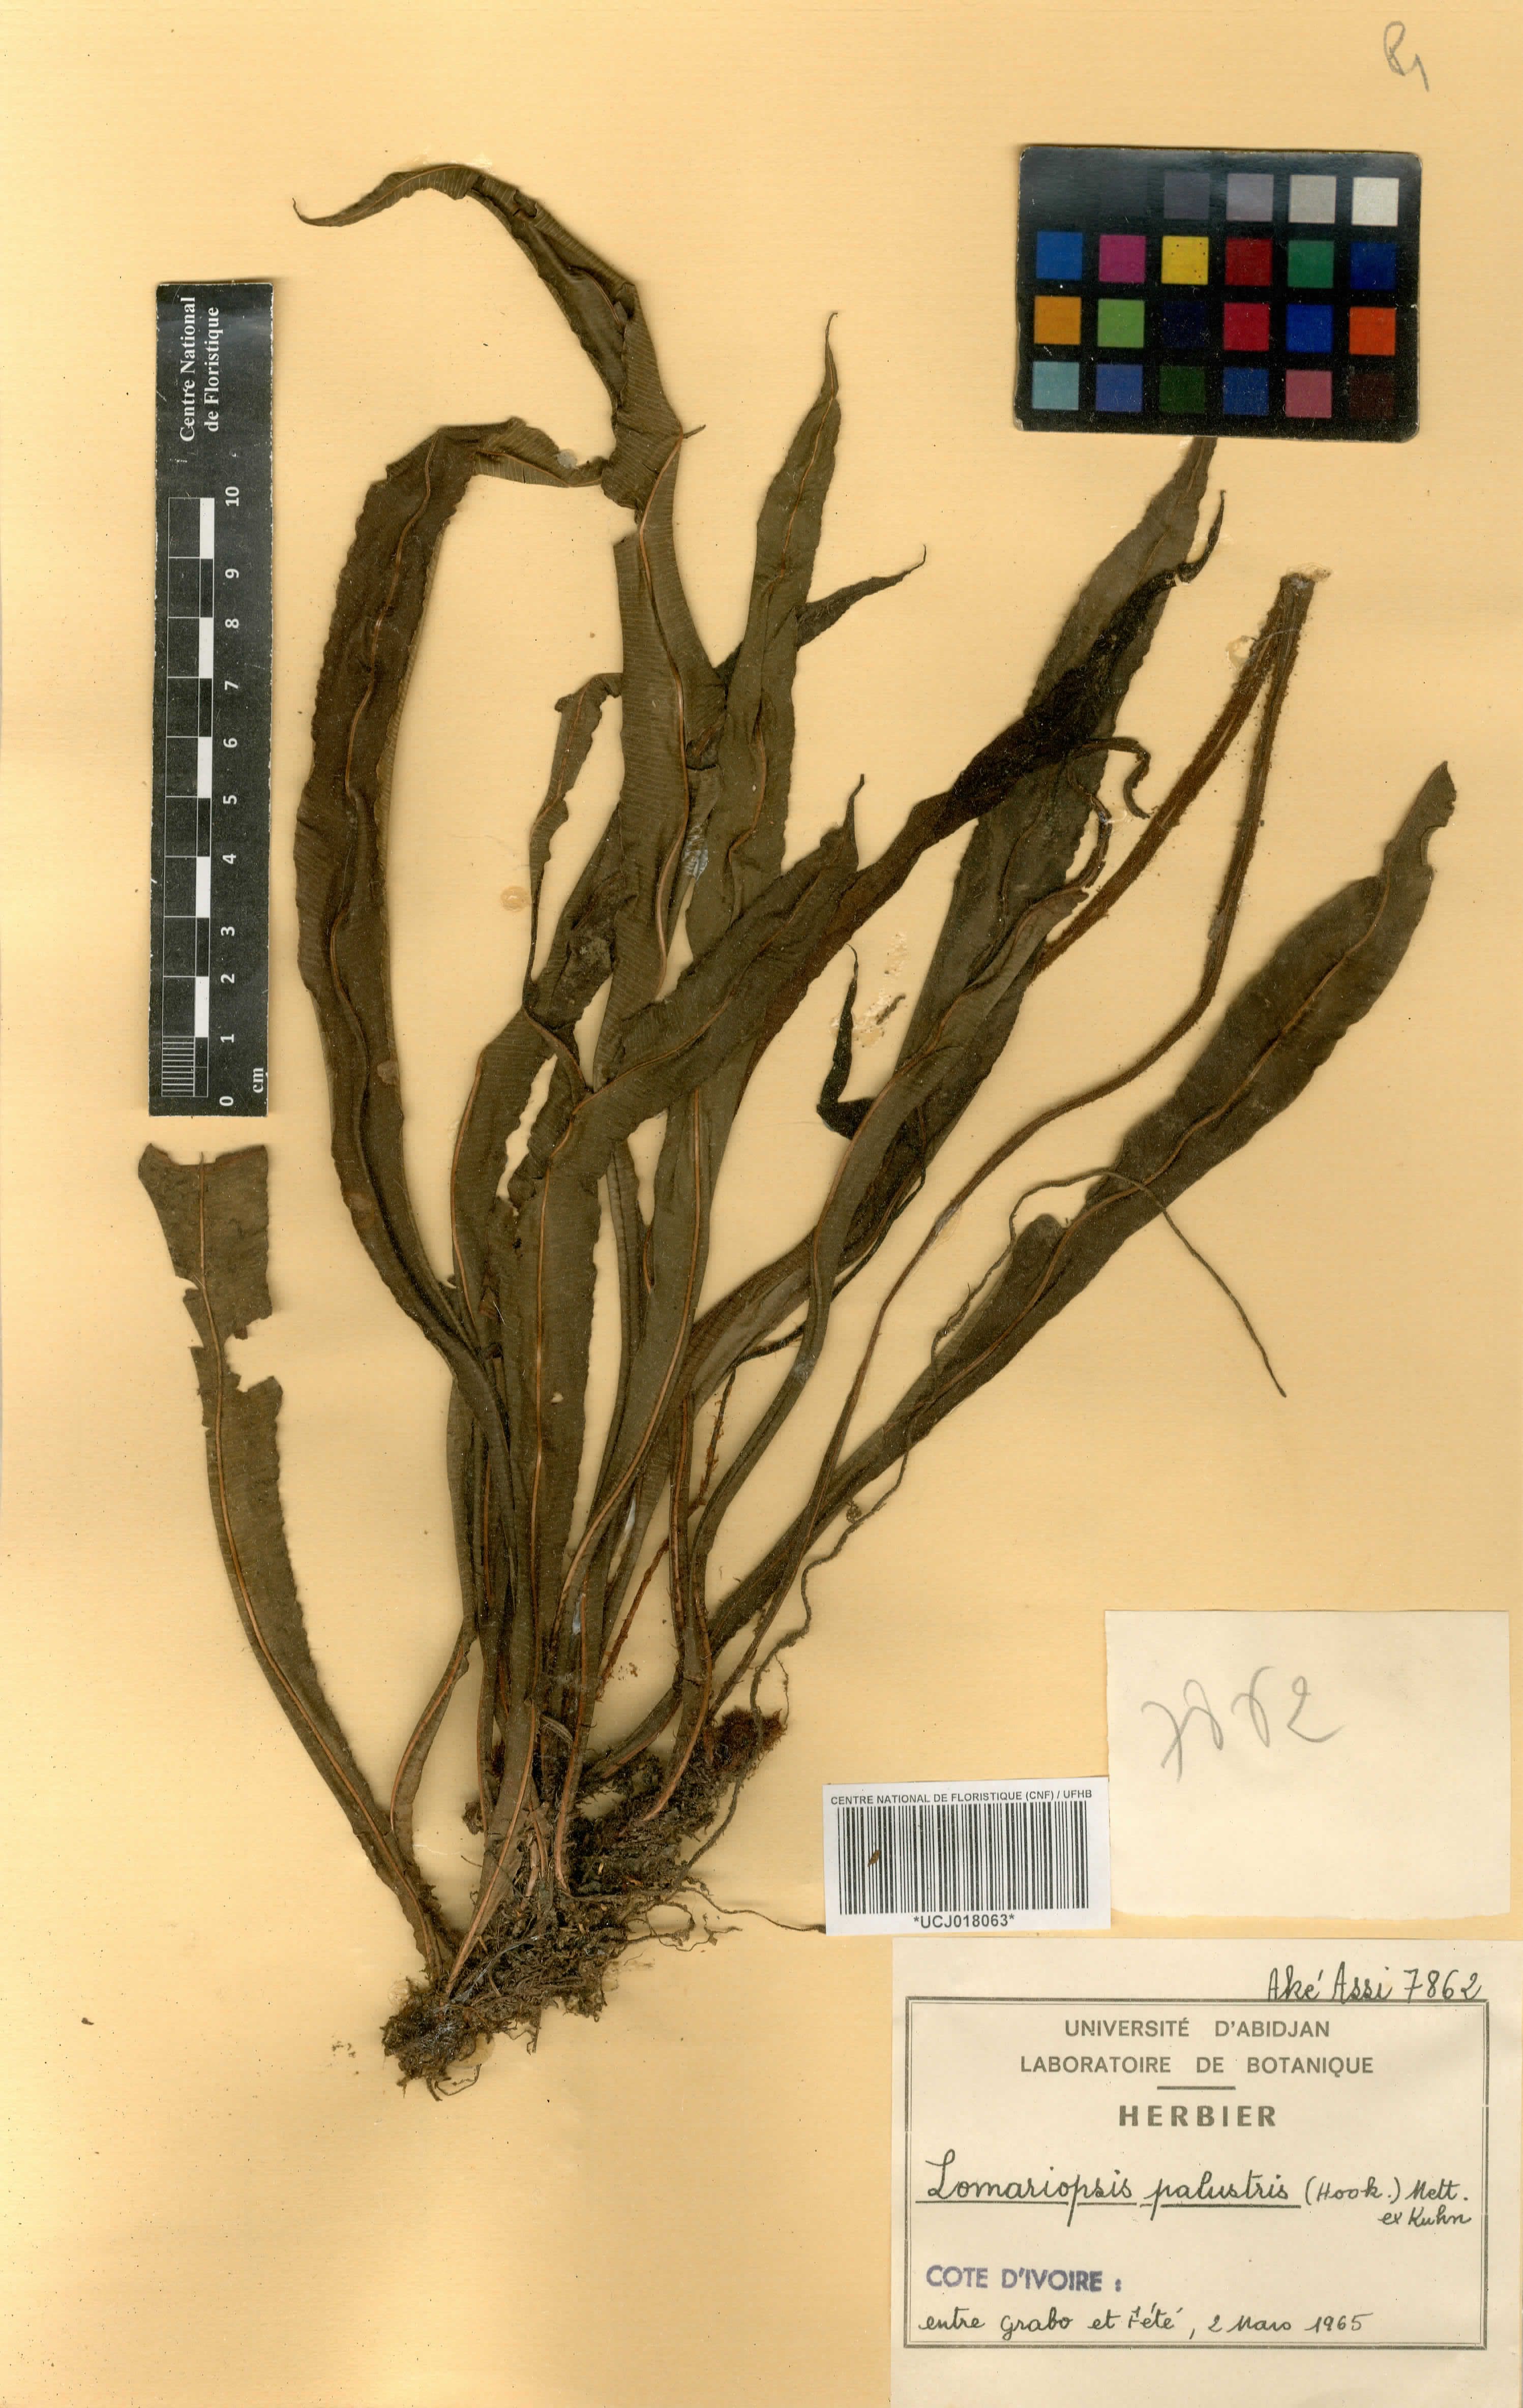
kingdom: Plantae
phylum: Tracheophyta
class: Polypodiopsida
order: Polypodiales
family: Blechnaceae
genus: Stenochlaena
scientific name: Stenochlaena palustris
